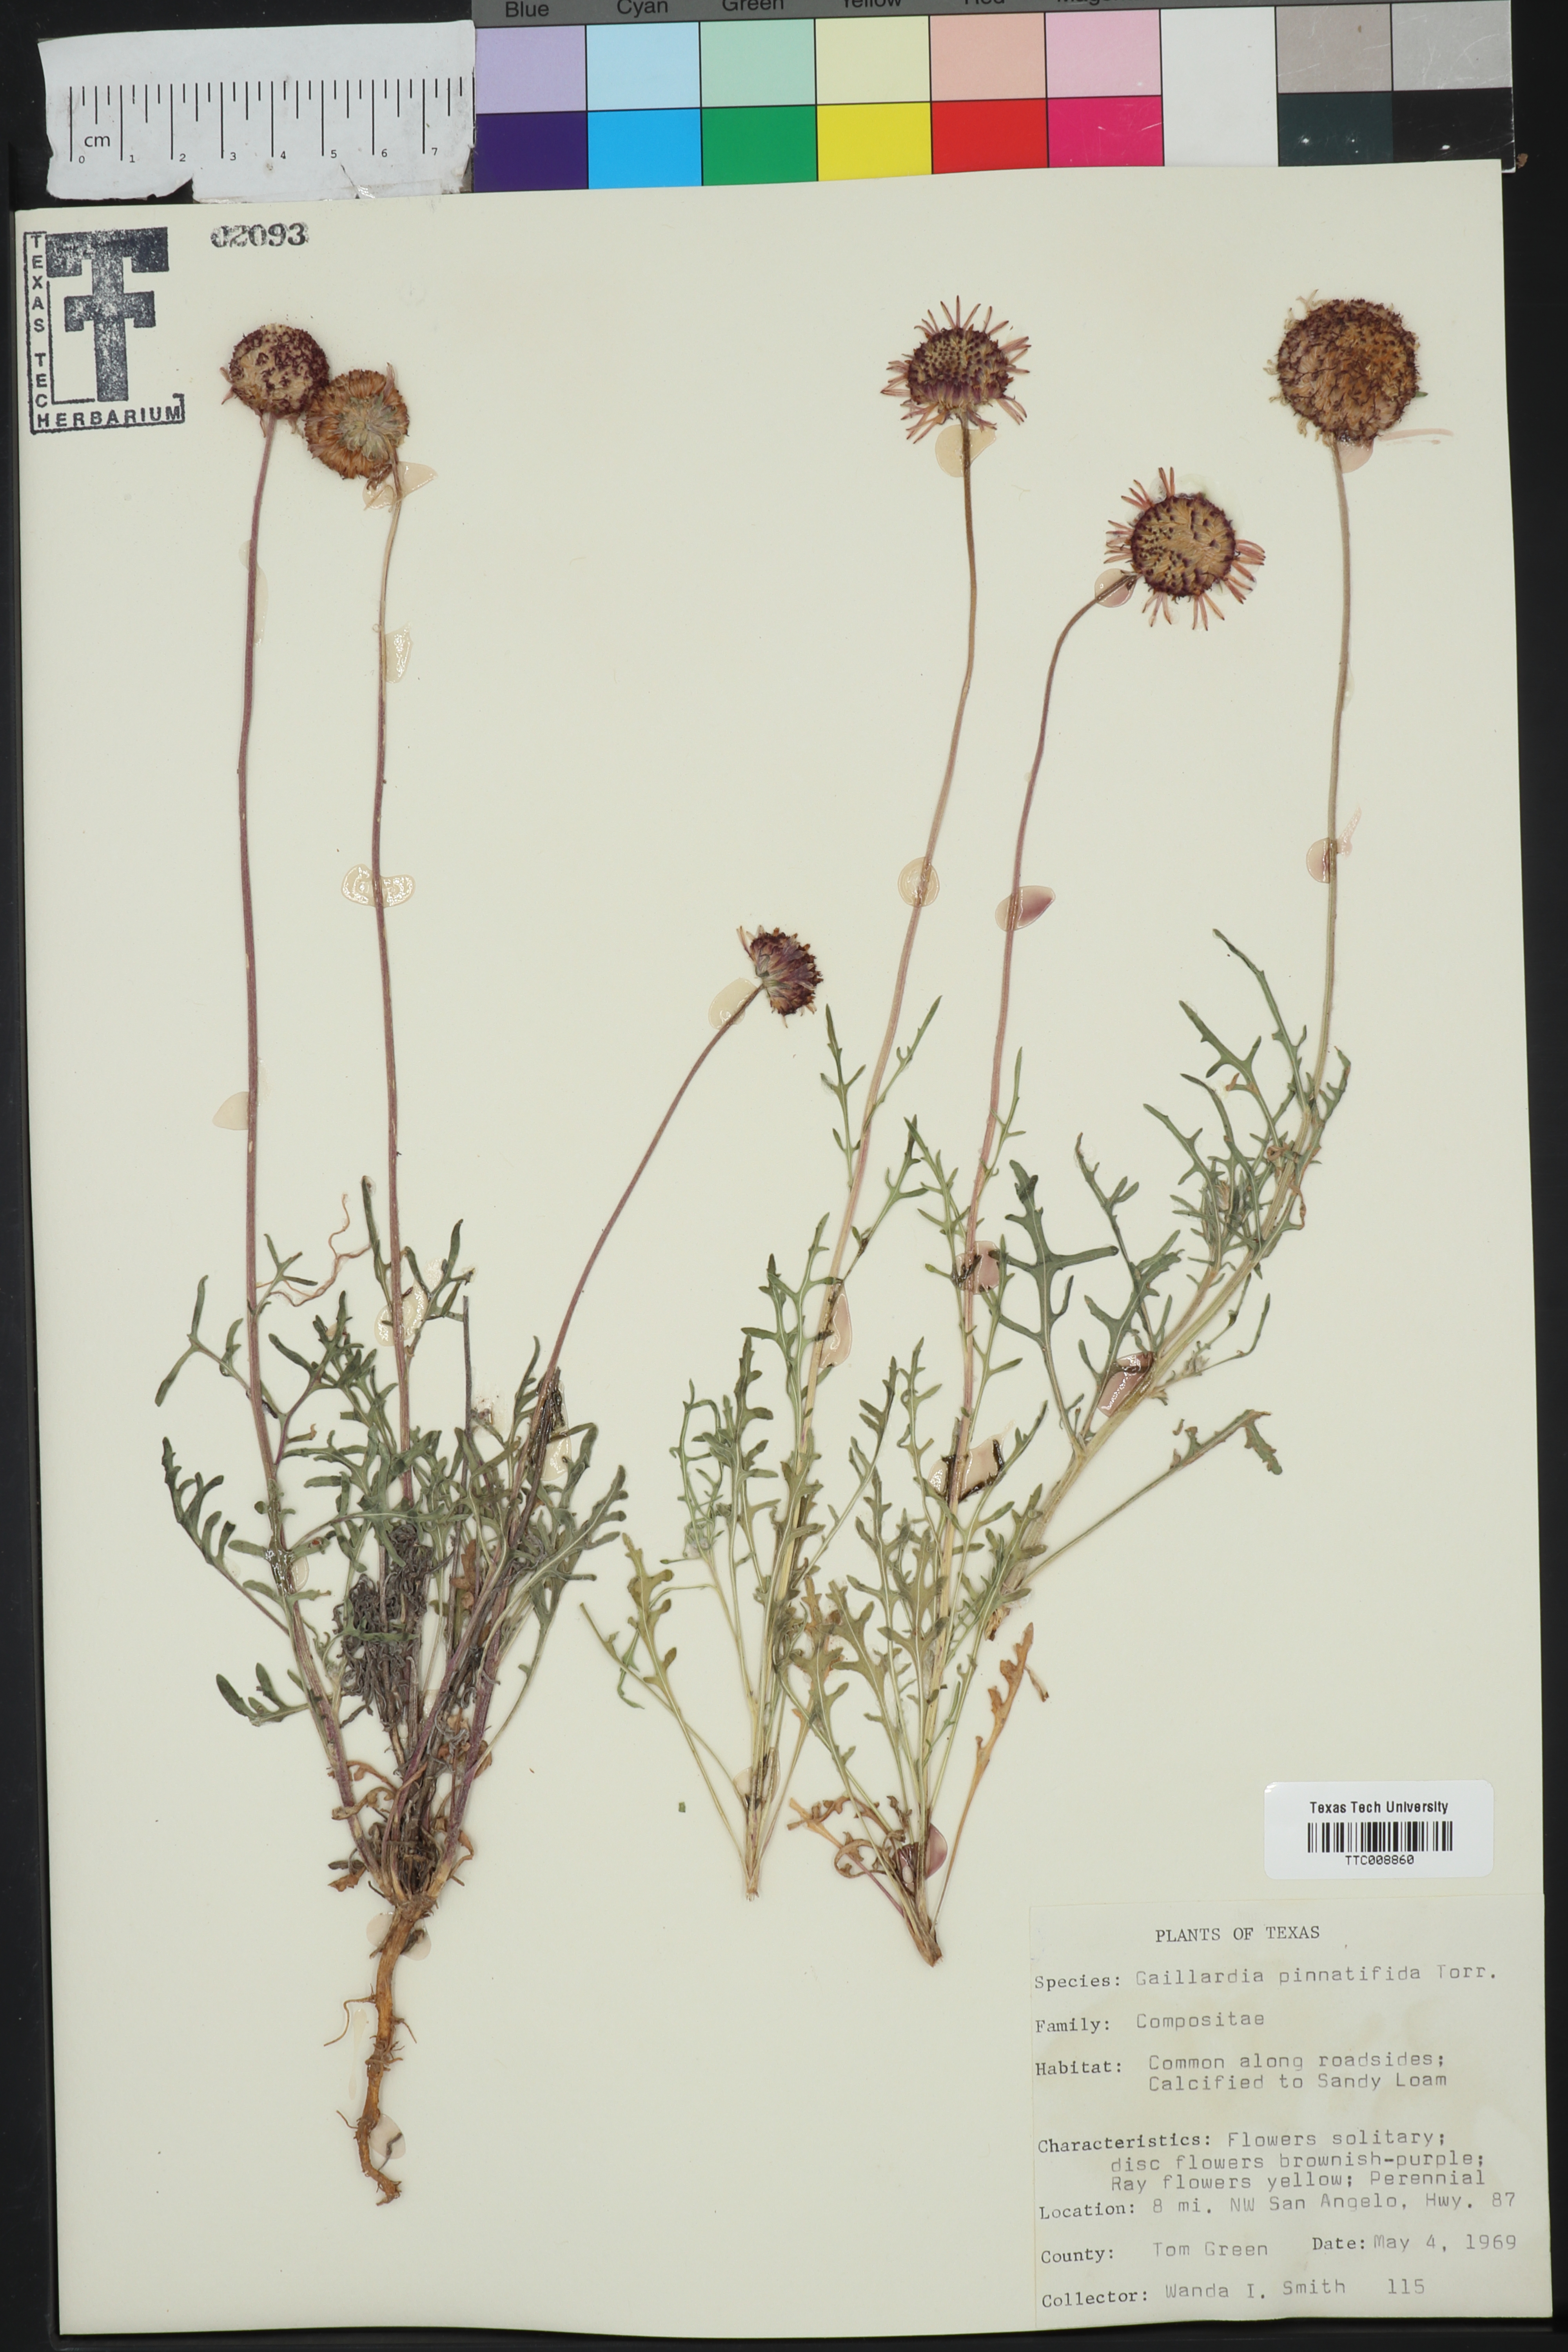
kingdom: Plantae
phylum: Tracheophyta
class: Magnoliopsida
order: Asterales
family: Asteraceae
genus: Gaillardia
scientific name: Gaillardia pinnatifida
